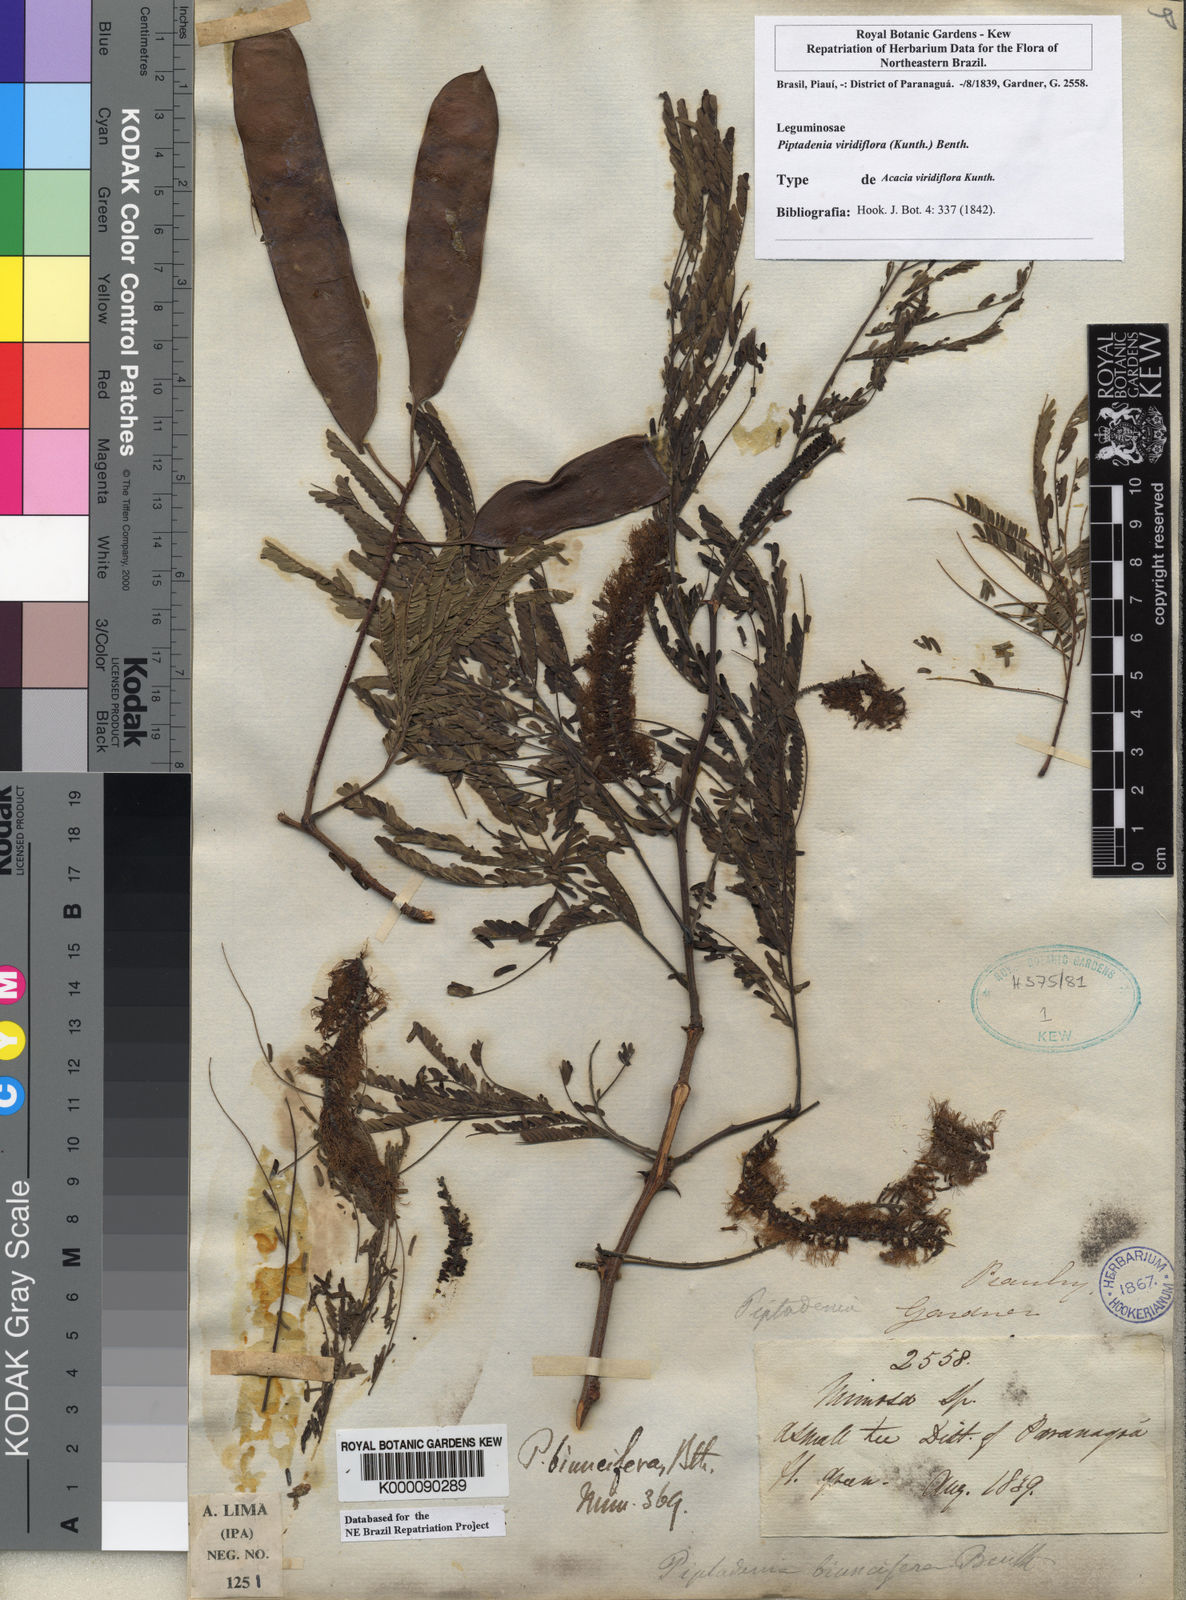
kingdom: Plantae
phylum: Tracheophyta
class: Magnoliopsida
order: Fabales
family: Fabaceae
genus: Lachesiodendron
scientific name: Lachesiodendron viridiflorum
